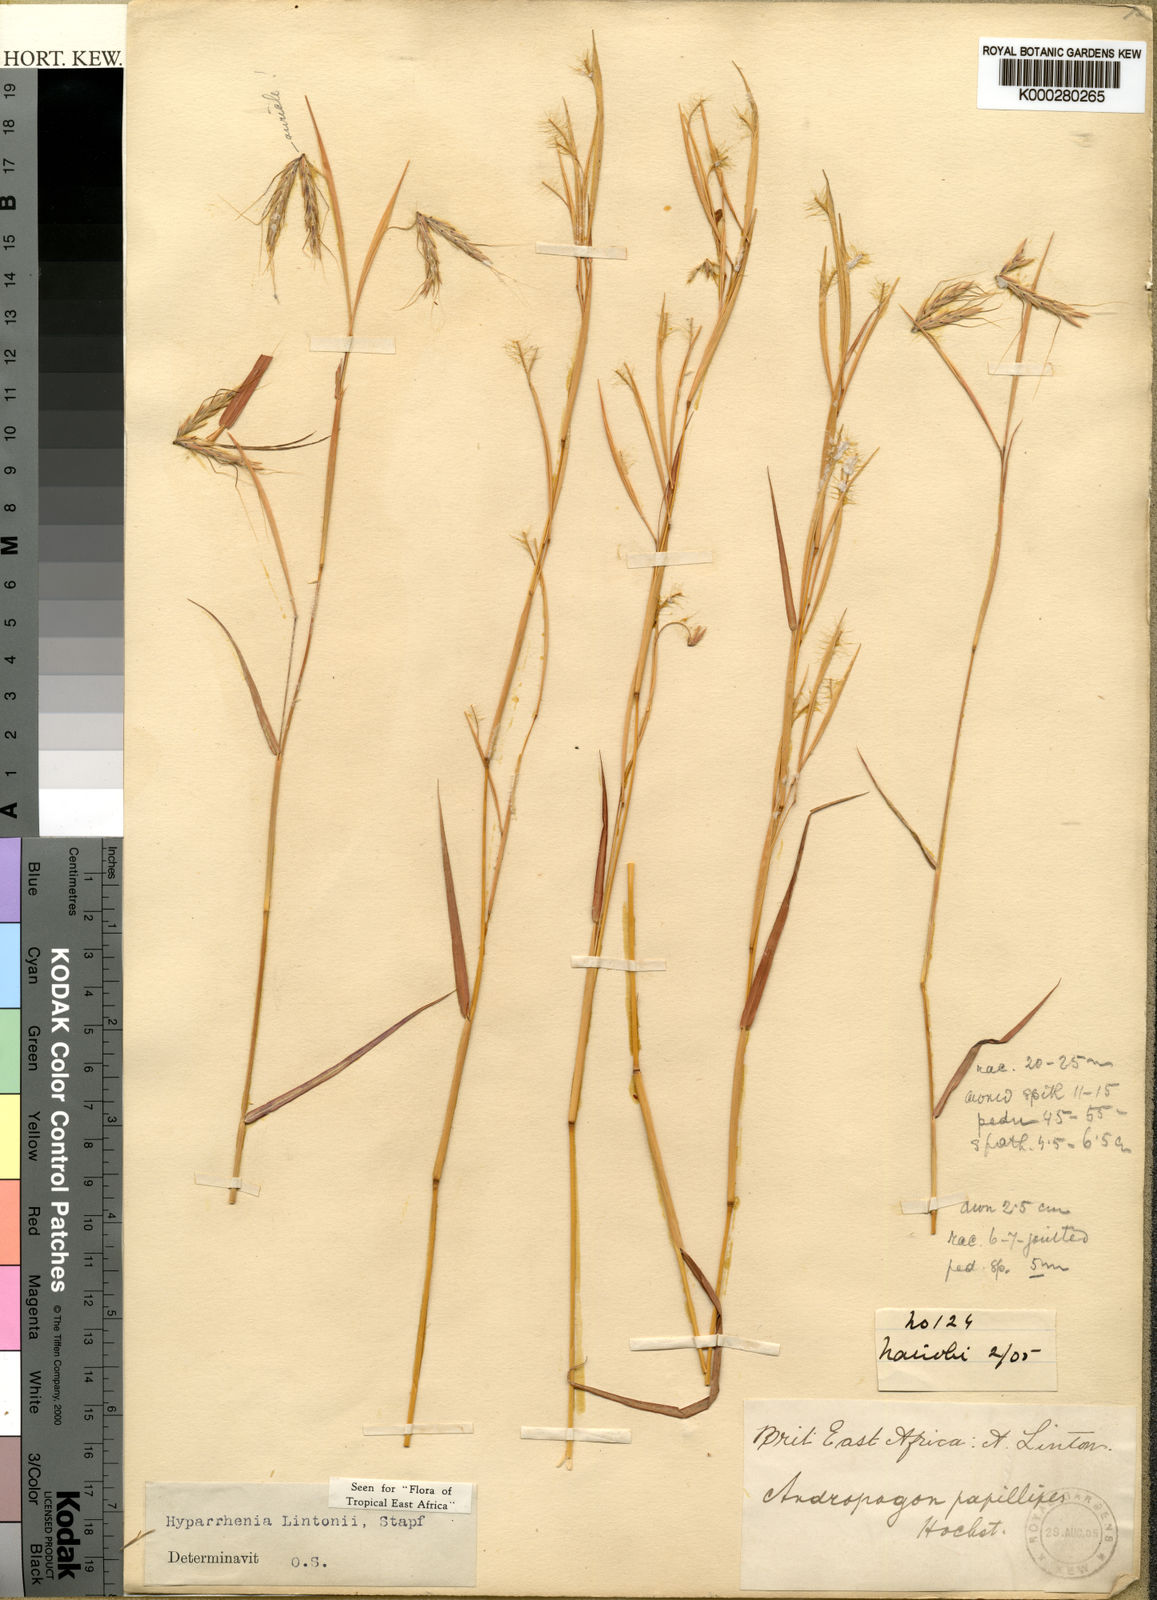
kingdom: Plantae
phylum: Tracheophyta
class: Liliopsida
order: Poales
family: Poaceae
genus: Hyparrhenia
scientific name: Hyparrhenia
